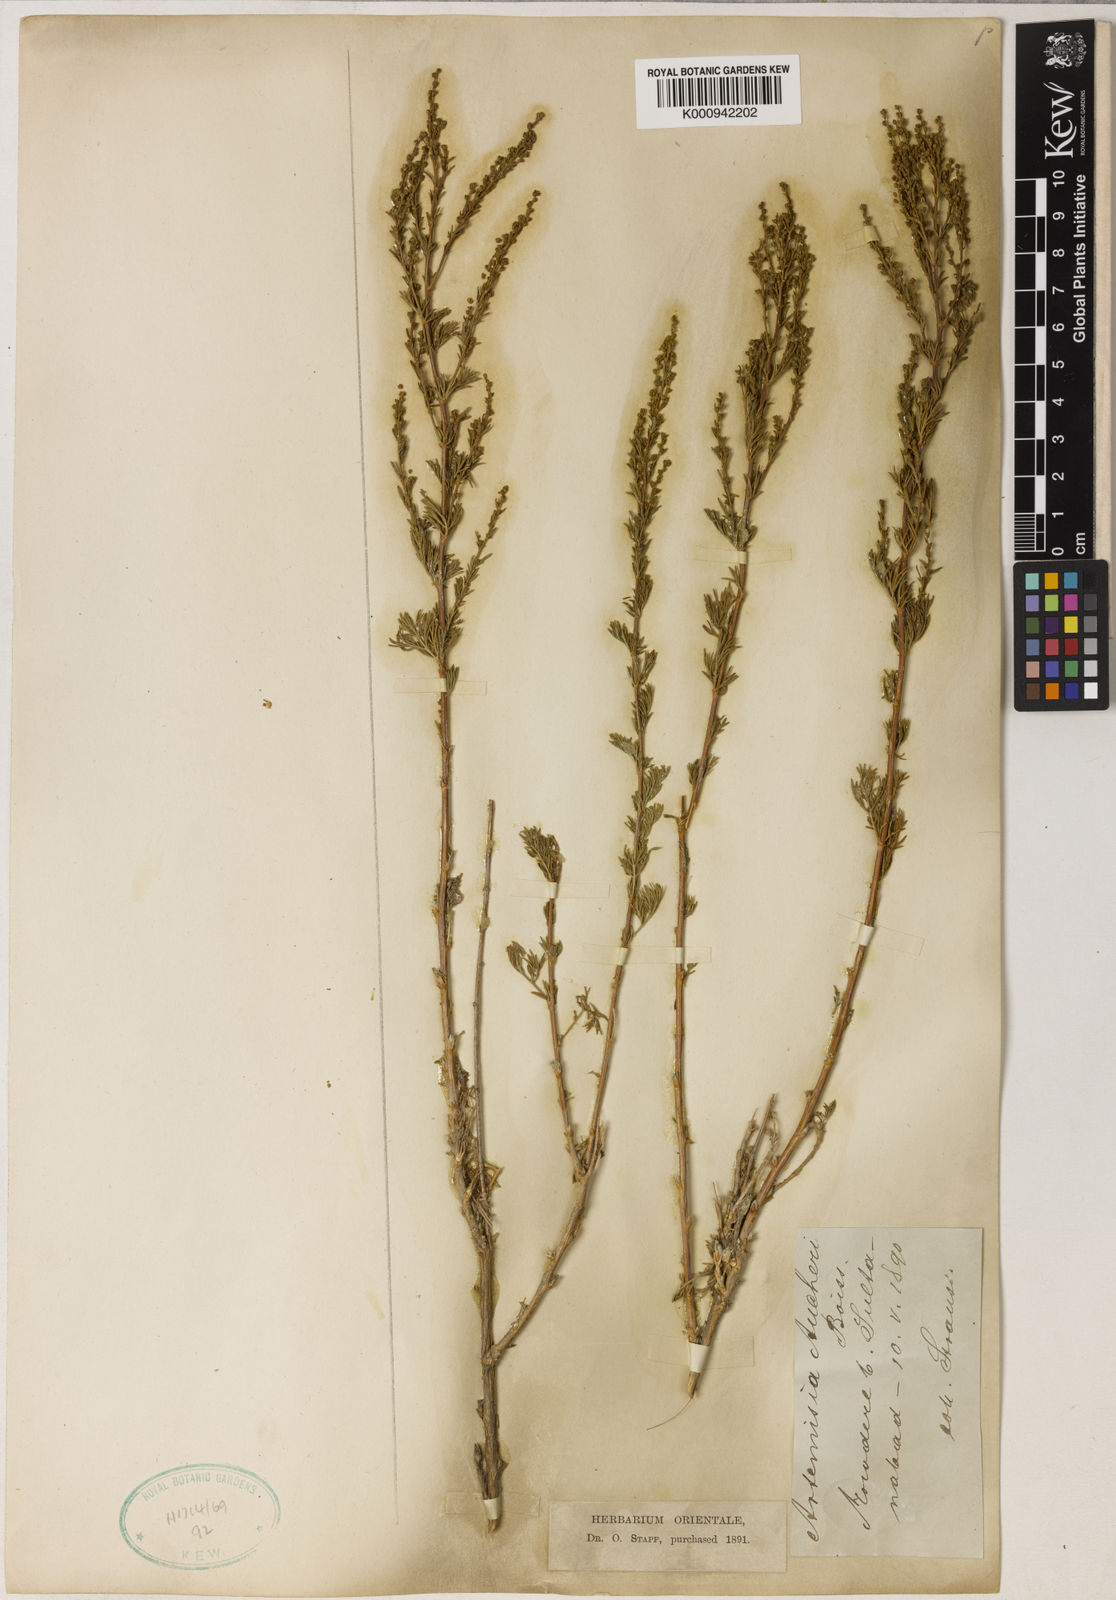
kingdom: Plantae
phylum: Tracheophyta
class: Magnoliopsida
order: Asterales
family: Asteraceae
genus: Artemisia
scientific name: Artemisia aucheri
